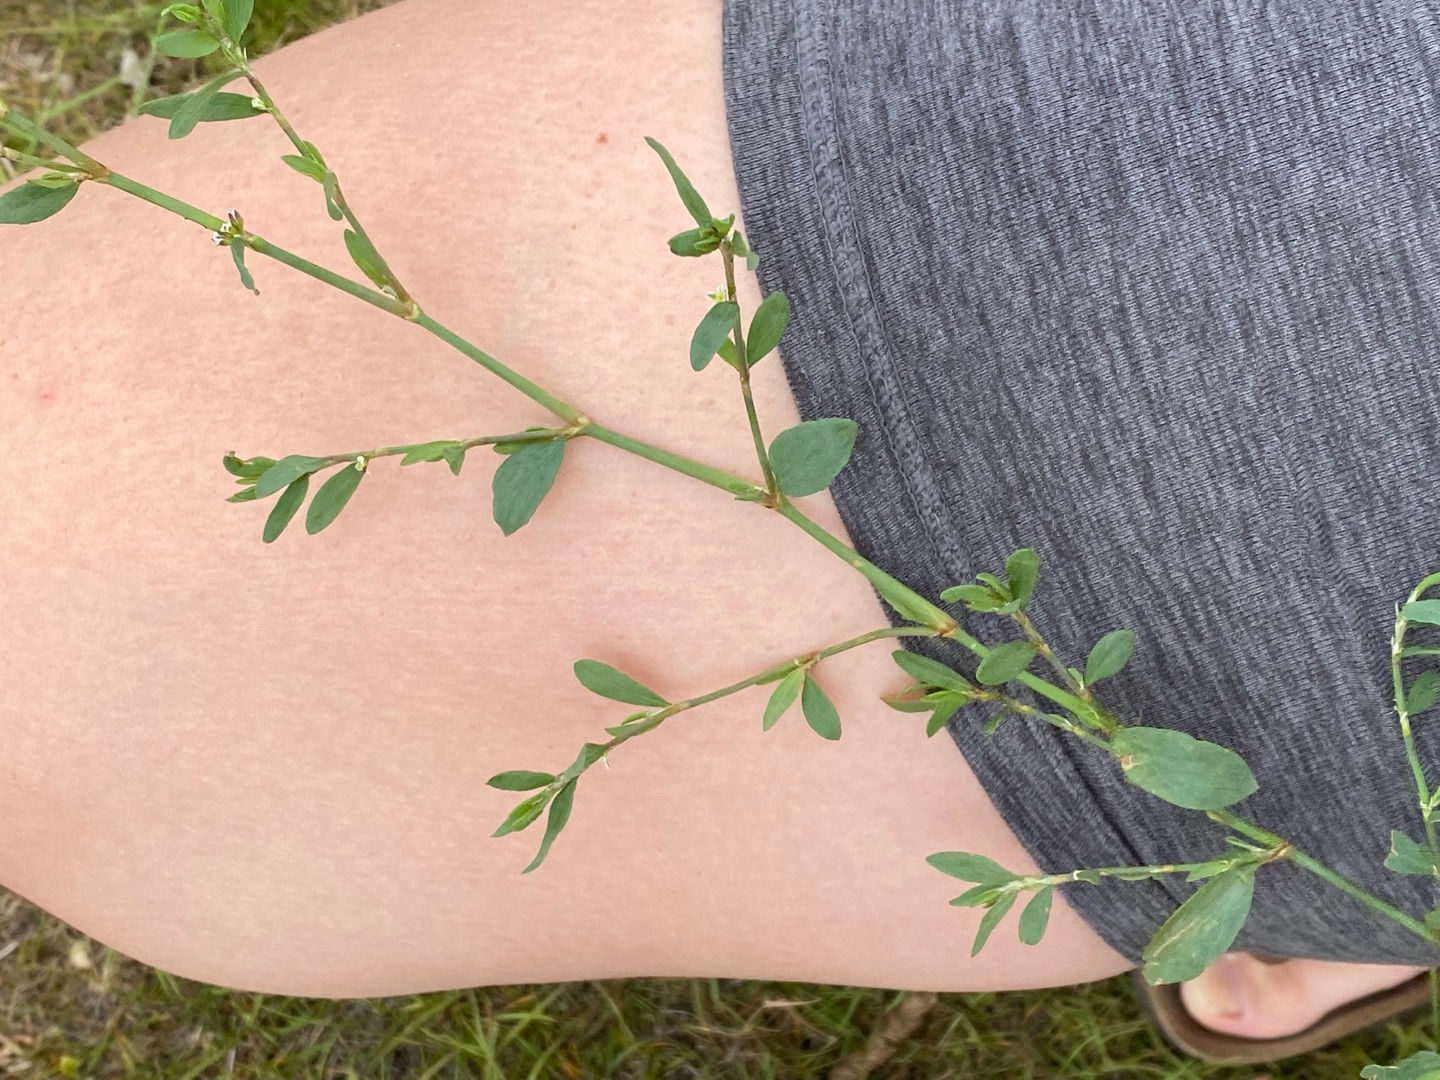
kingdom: Plantae
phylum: Tracheophyta
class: Magnoliopsida
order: Caryophyllales
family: Polygonaceae
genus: Polygonum
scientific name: Polygonum aviculare
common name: Vej-pileurt
